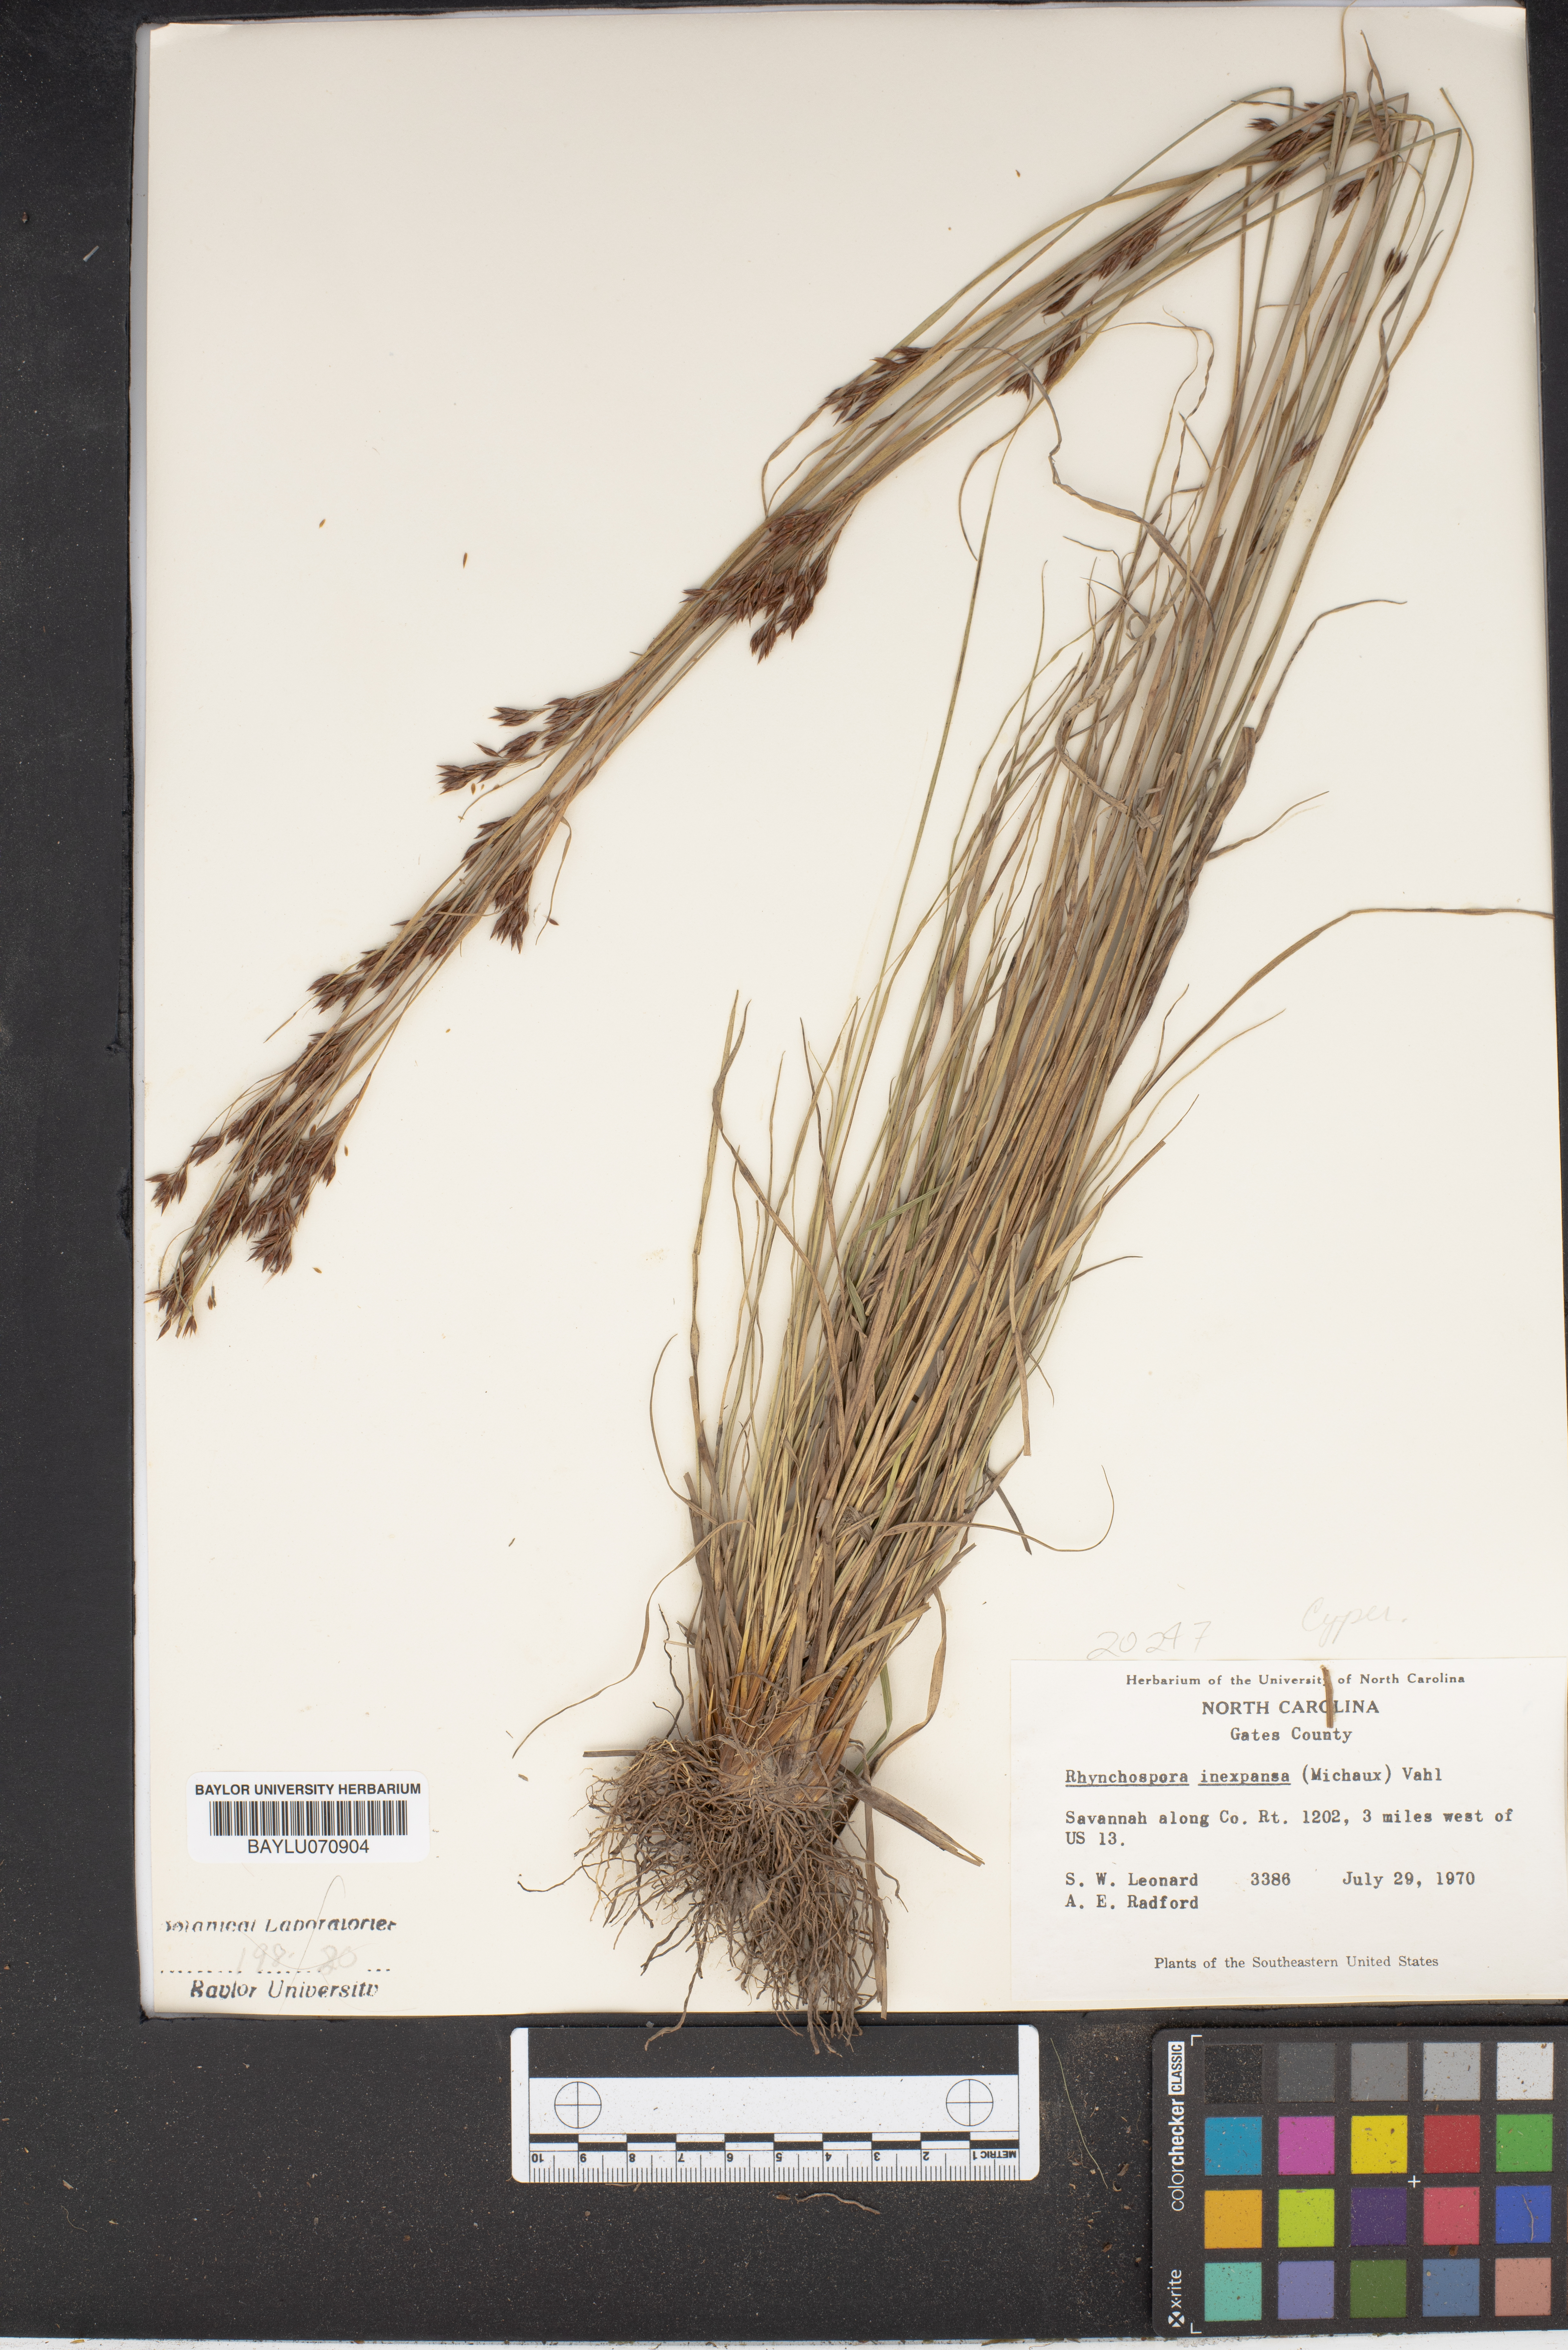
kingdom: Plantae
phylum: Tracheophyta
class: Liliopsida
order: Poales
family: Cyperaceae
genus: Rhynchospora
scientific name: Rhynchospora inexpansa
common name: Nodding beaksedge
